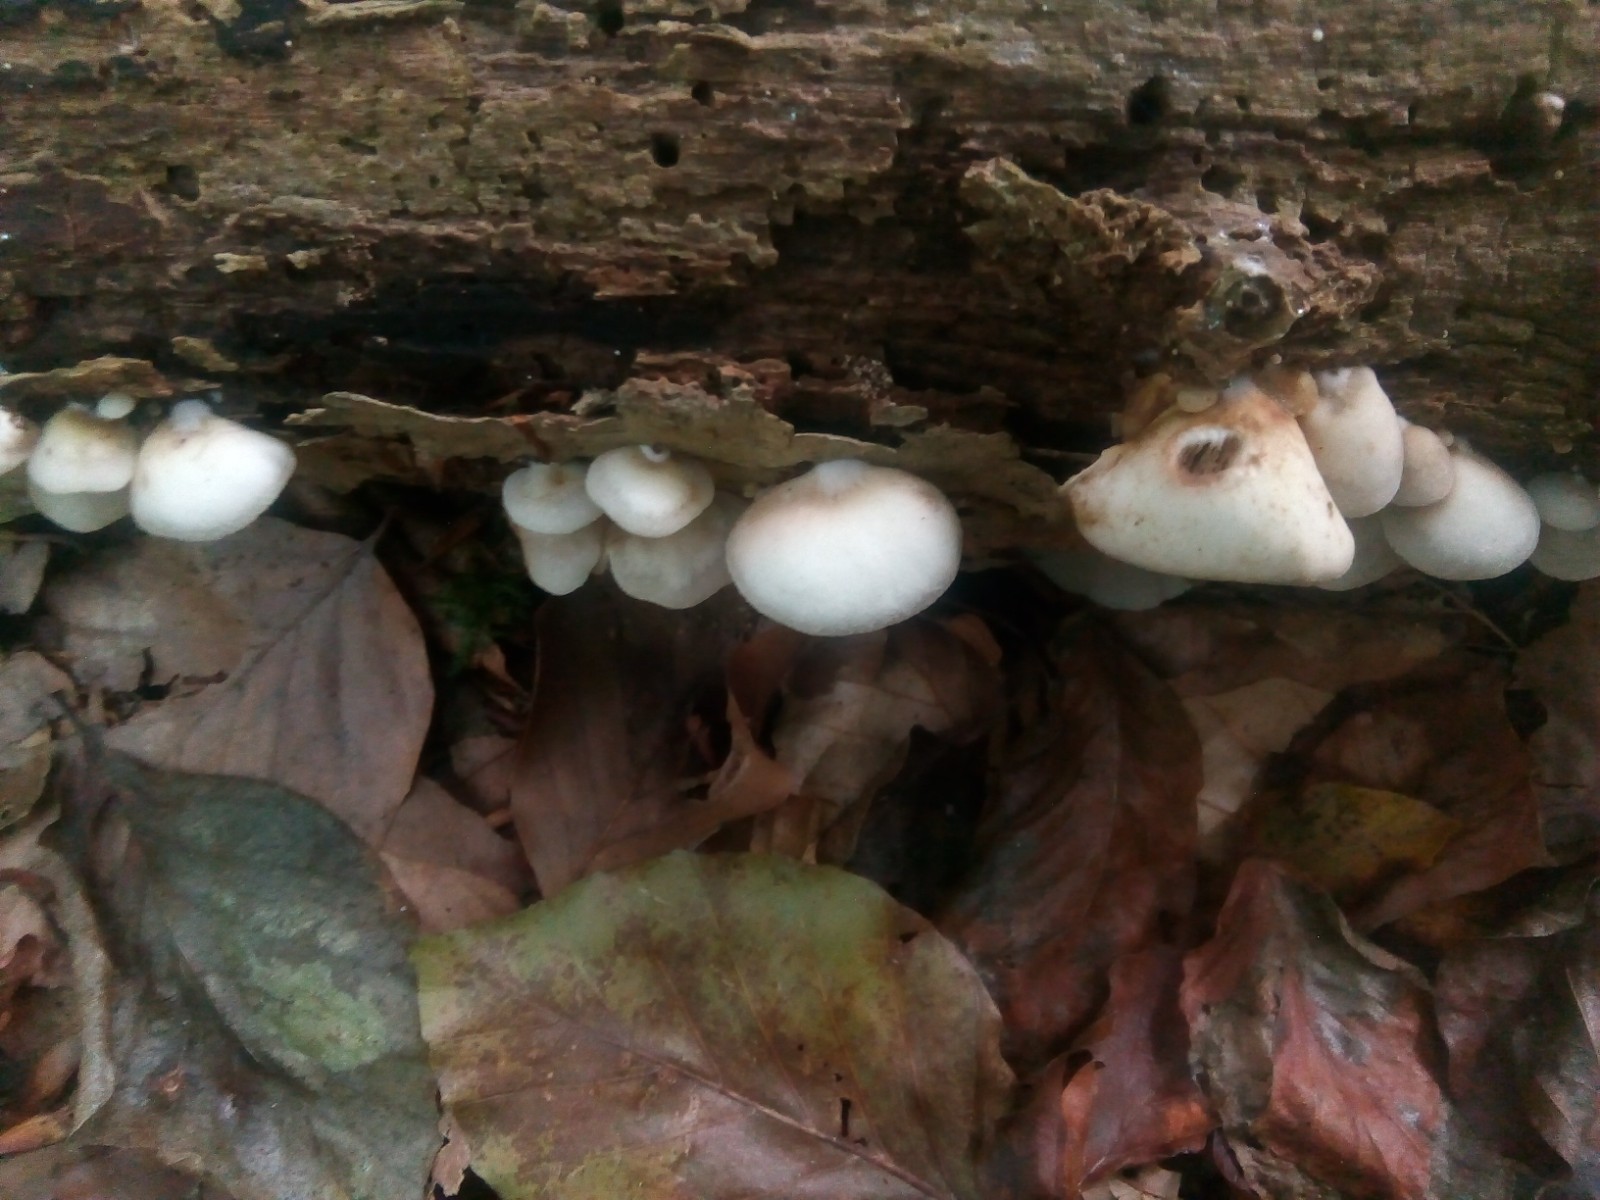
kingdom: Fungi
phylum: Basidiomycota
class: Agaricomycetes
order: Agaricales
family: Crepidotaceae
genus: Crepidotus
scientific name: Crepidotus mollis
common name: blød muslingesvamp
